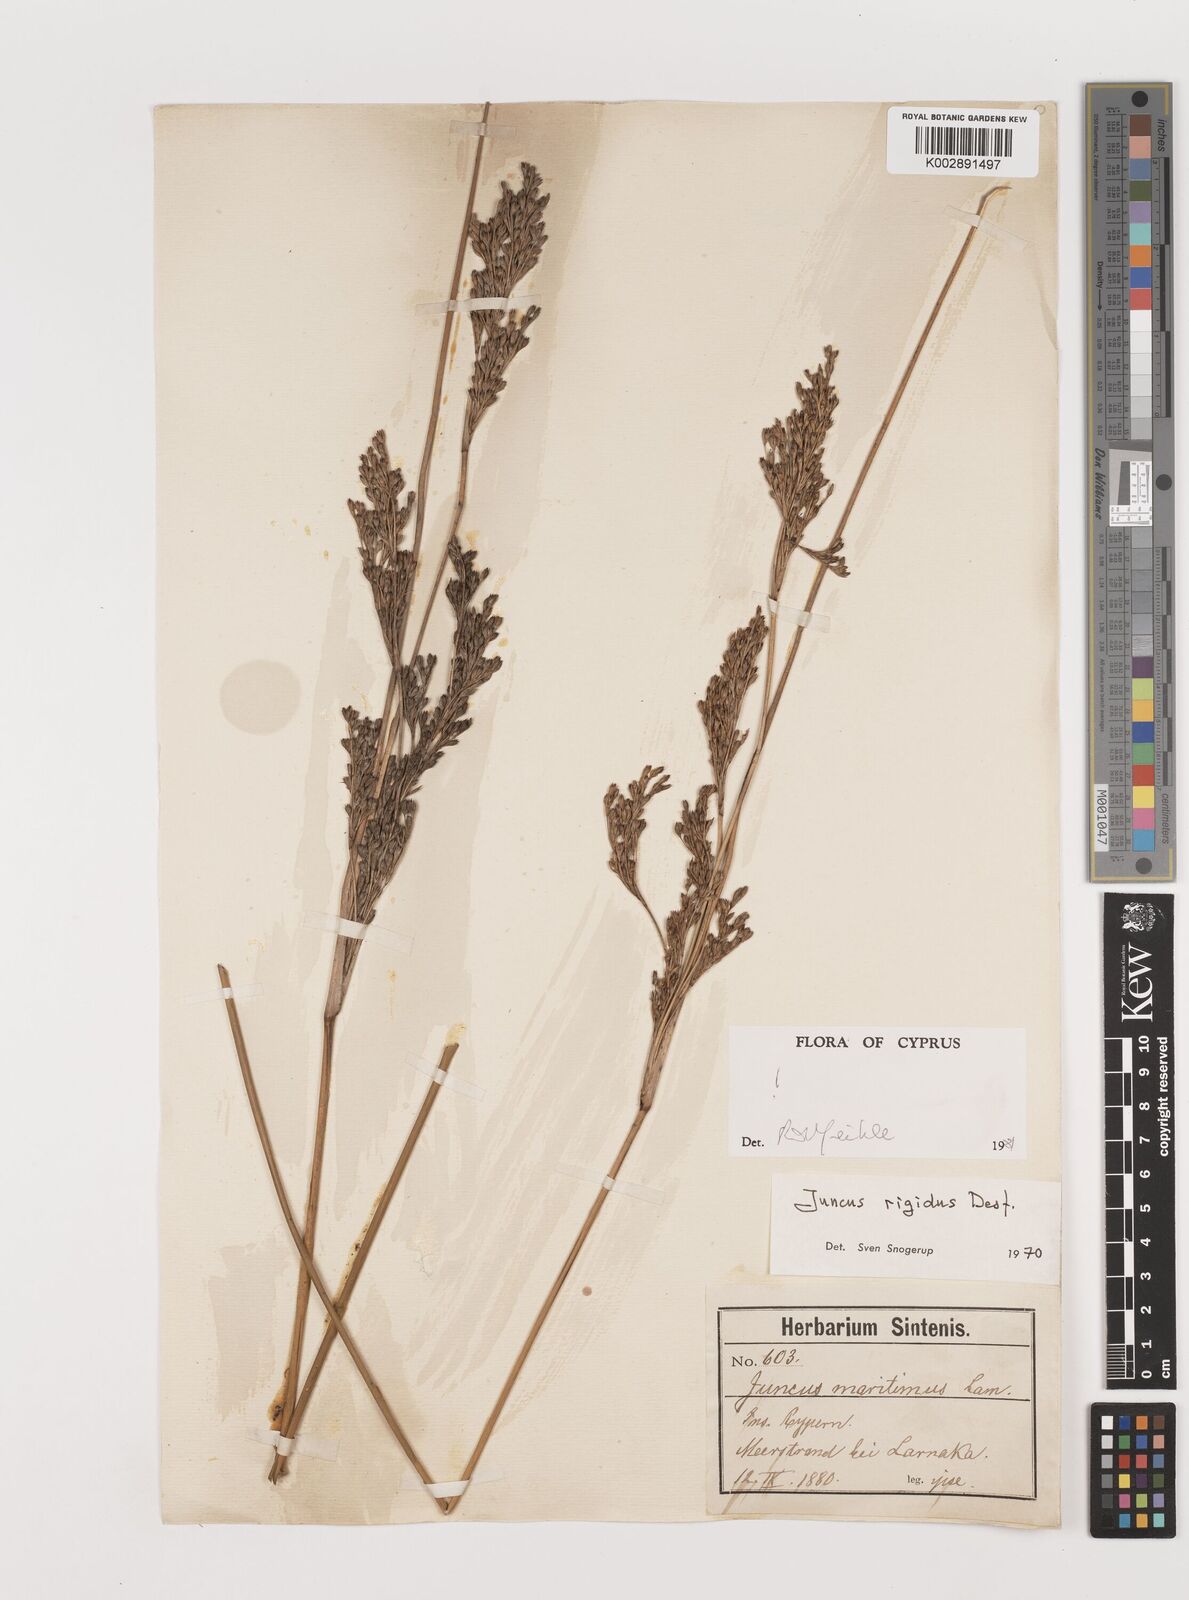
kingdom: Plantae
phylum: Tracheophyta
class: Liliopsida
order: Poales
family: Juncaceae
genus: Juncus
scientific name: Juncus rigidus
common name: Hard sea rush
